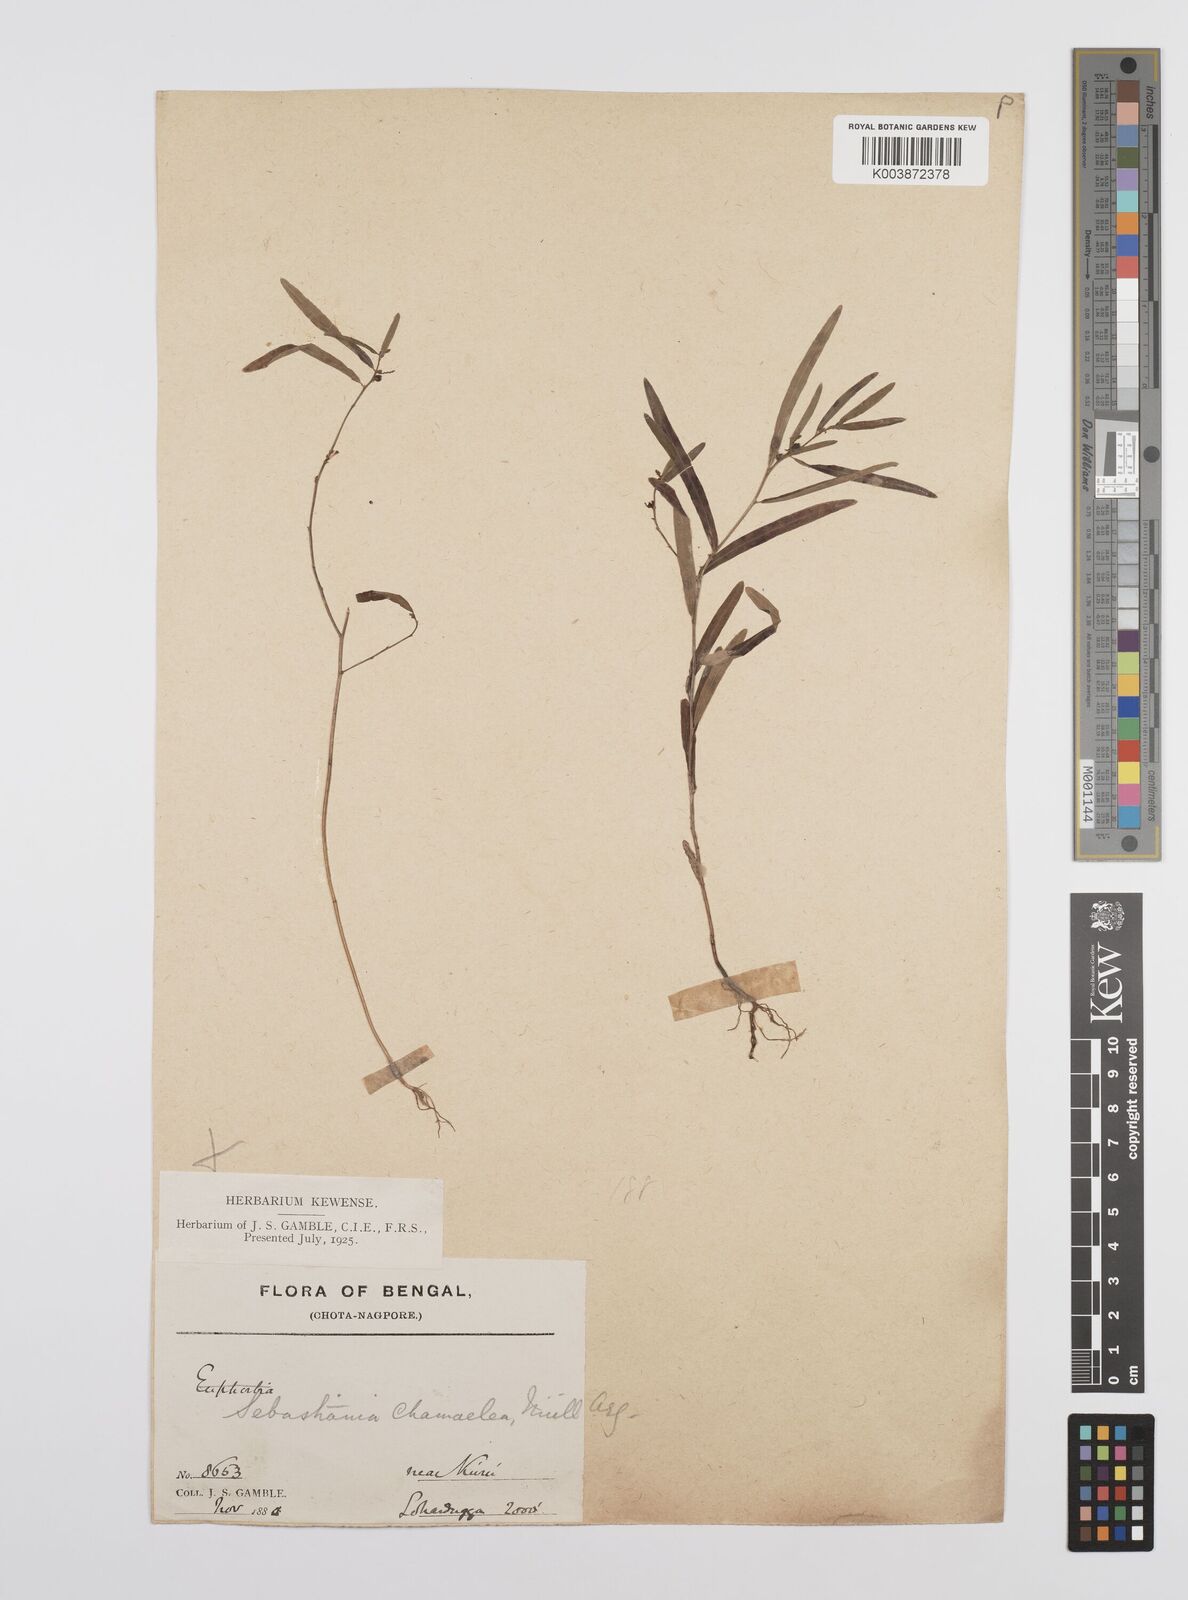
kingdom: Plantae
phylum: Tracheophyta
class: Magnoliopsida
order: Malpighiales
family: Euphorbiaceae
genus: Microstachys
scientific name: Microstachys chamaelea
